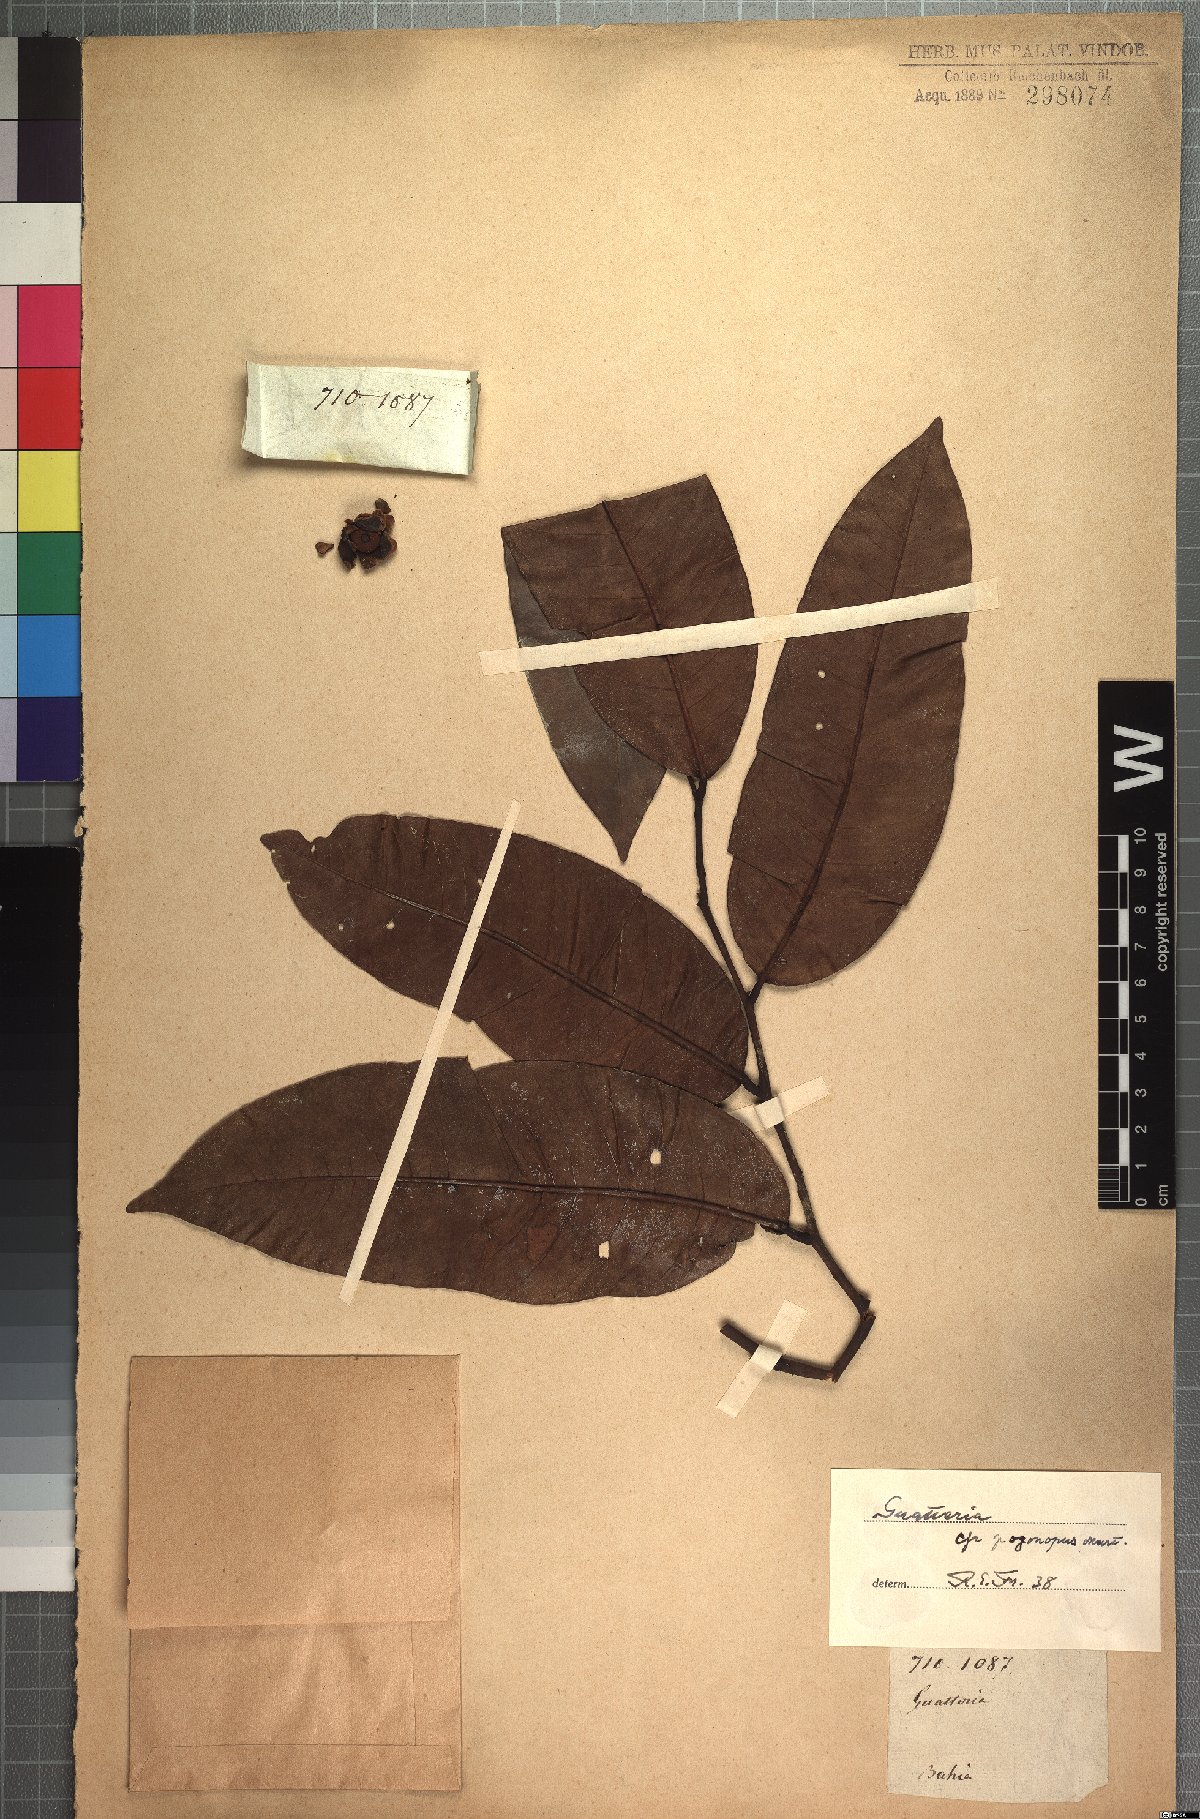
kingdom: Plantae
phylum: Tracheophyta
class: Magnoliopsida
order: Magnoliales
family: Annonaceae
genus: Guatteria
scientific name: Guatteria pogonopus
